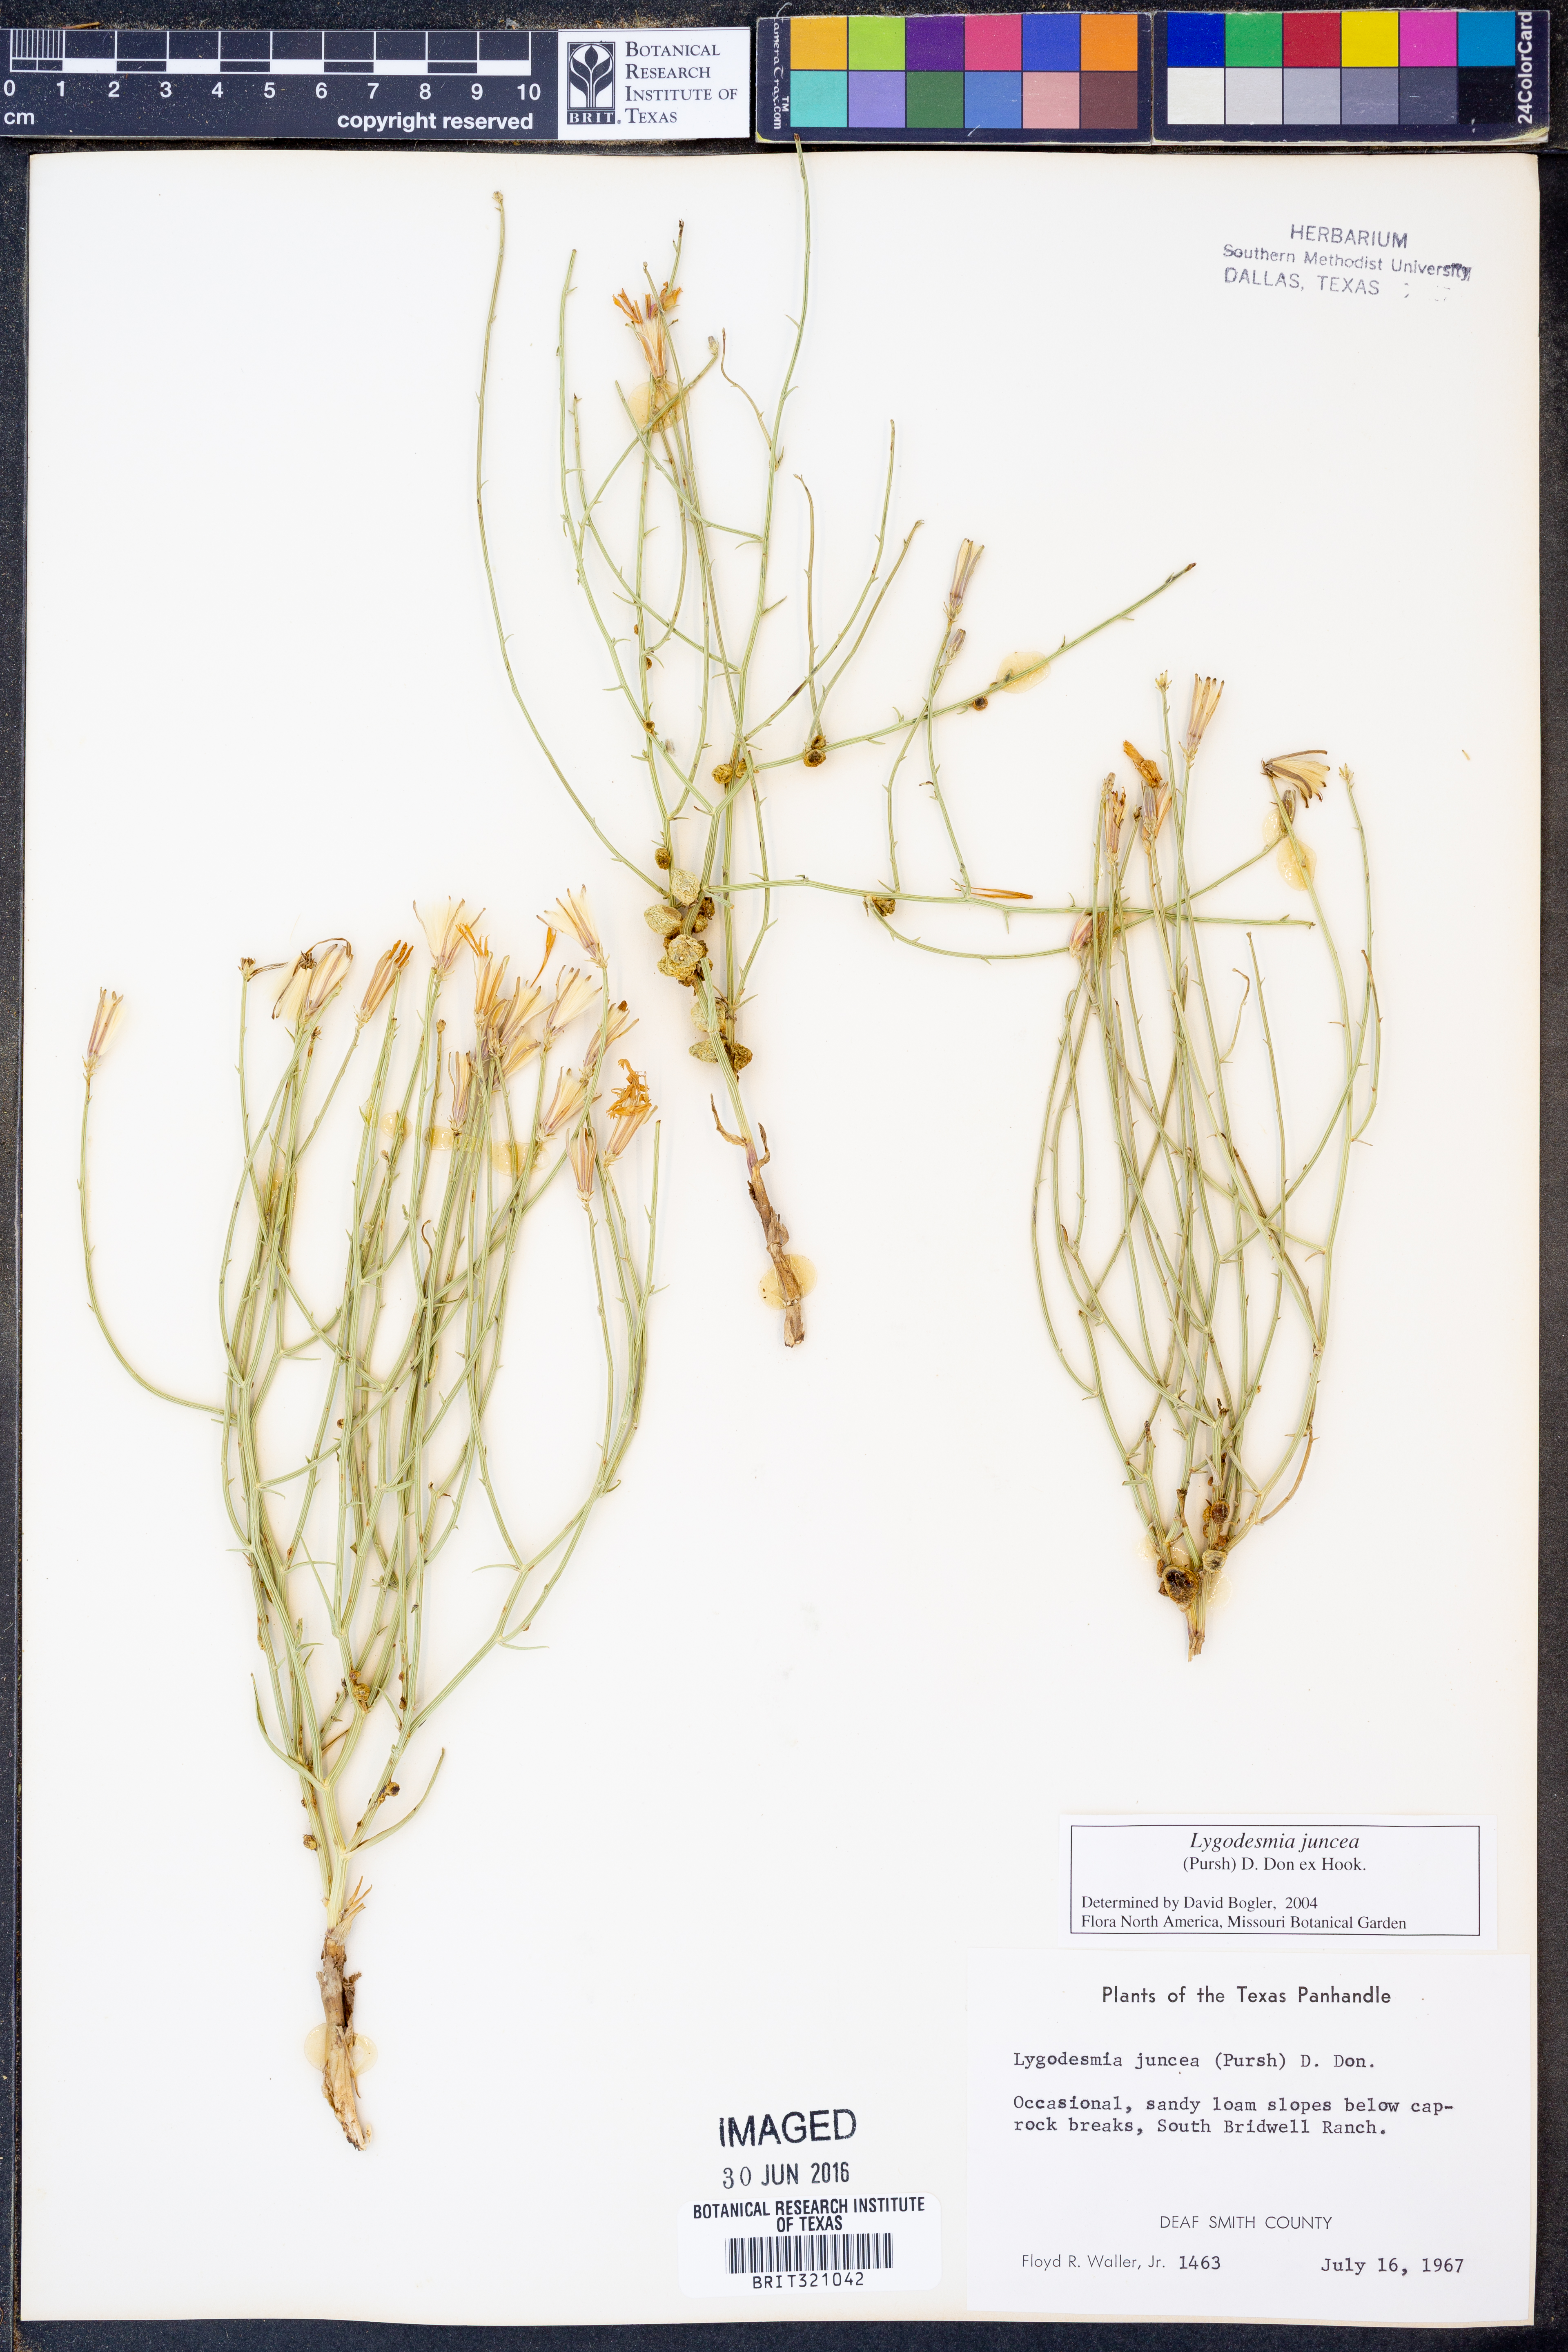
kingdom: Plantae
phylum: Tracheophyta
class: Magnoliopsida
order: Asterales
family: Asteraceae
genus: Lygodesmia
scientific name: Lygodesmia juncea
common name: Common skeletonweed
